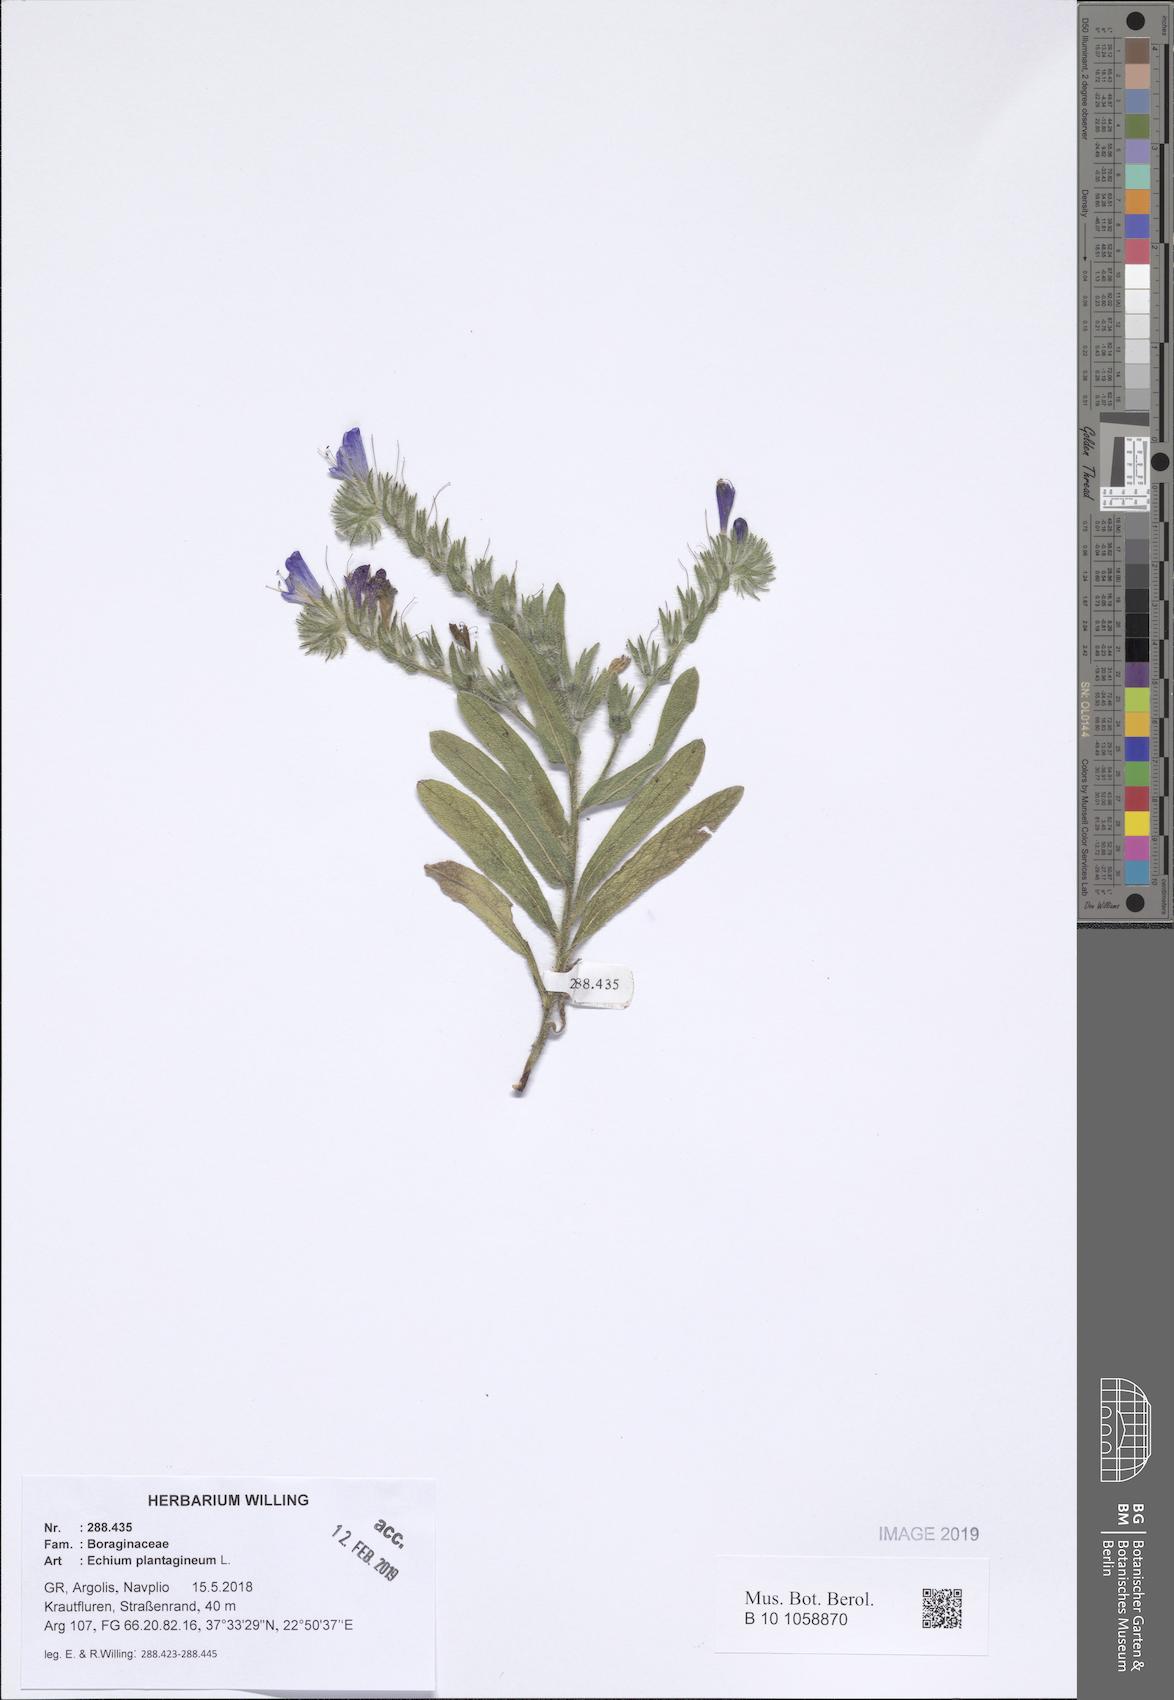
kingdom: Plantae
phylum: Tracheophyta
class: Magnoliopsida
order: Boraginales
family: Boraginaceae
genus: Echium
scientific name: Echium plantagineum
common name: Purple viper's-bugloss
